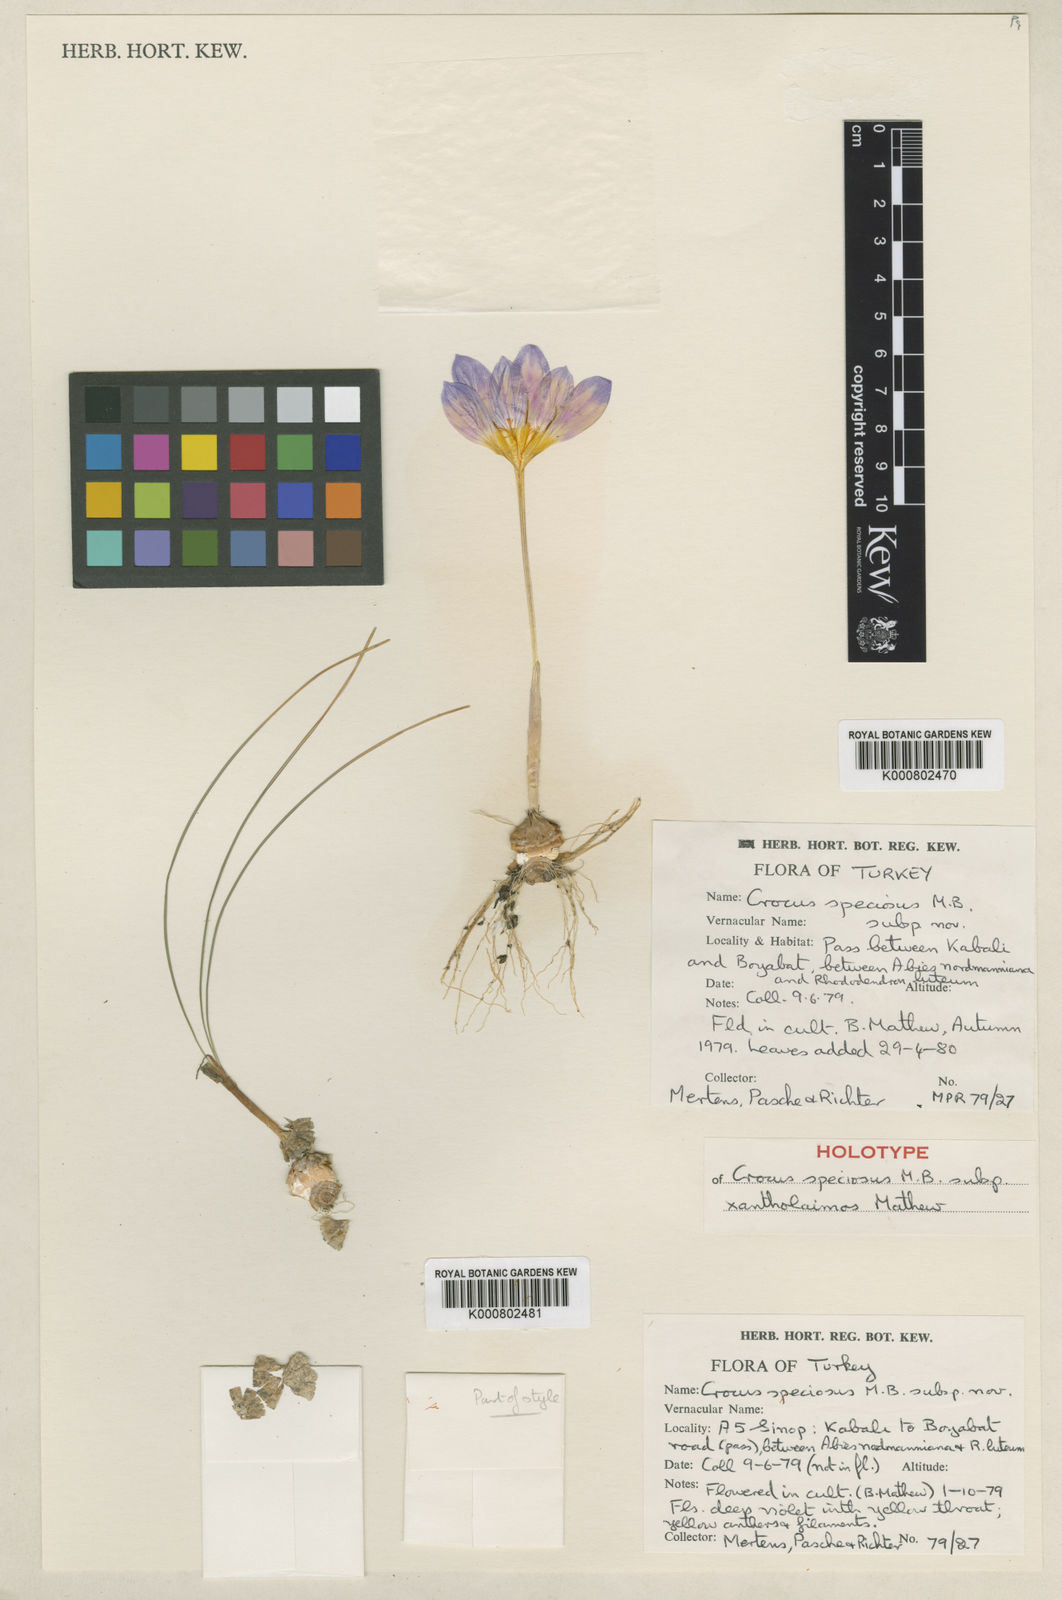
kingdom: Plantae
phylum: Tracheophyta
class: Liliopsida
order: Asparagales
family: Iridaceae
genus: Crocus
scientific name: Crocus xantholaimos
